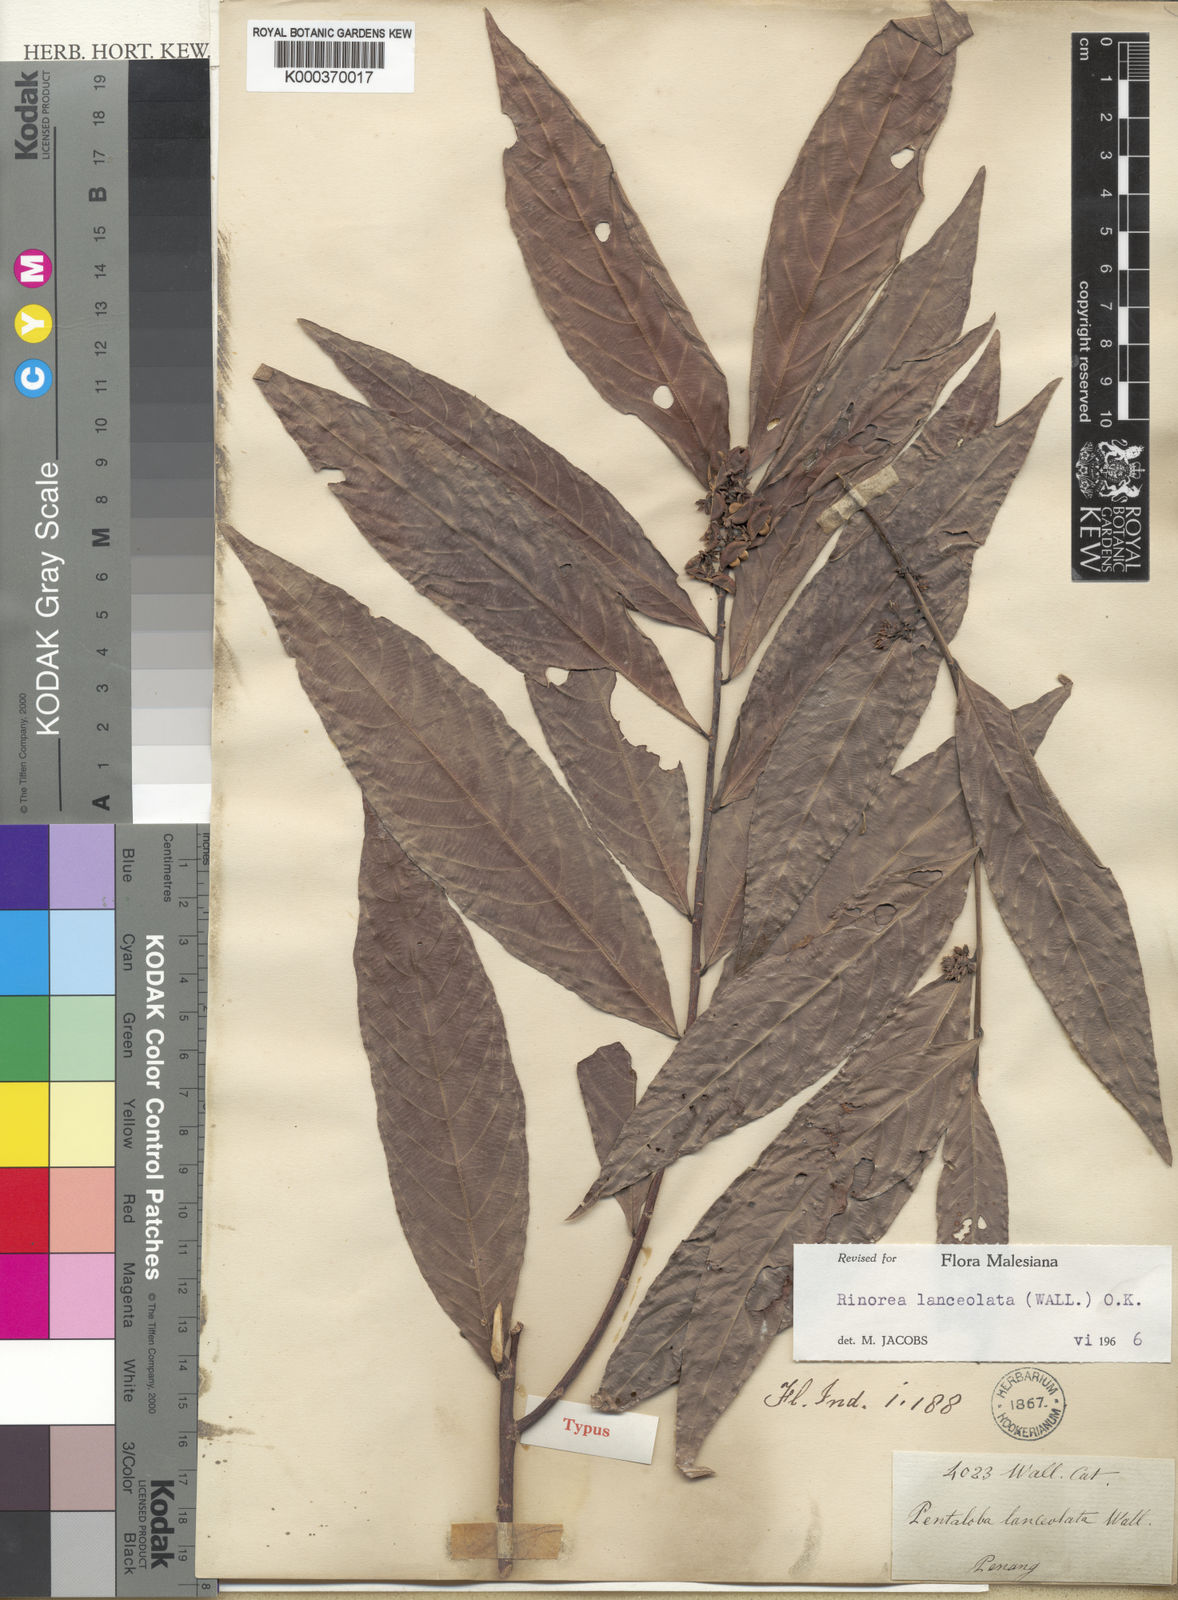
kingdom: Plantae
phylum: Tracheophyta
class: Magnoliopsida
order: Malpighiales
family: Violaceae
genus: Rinorea
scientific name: Rinorea lanceolata
